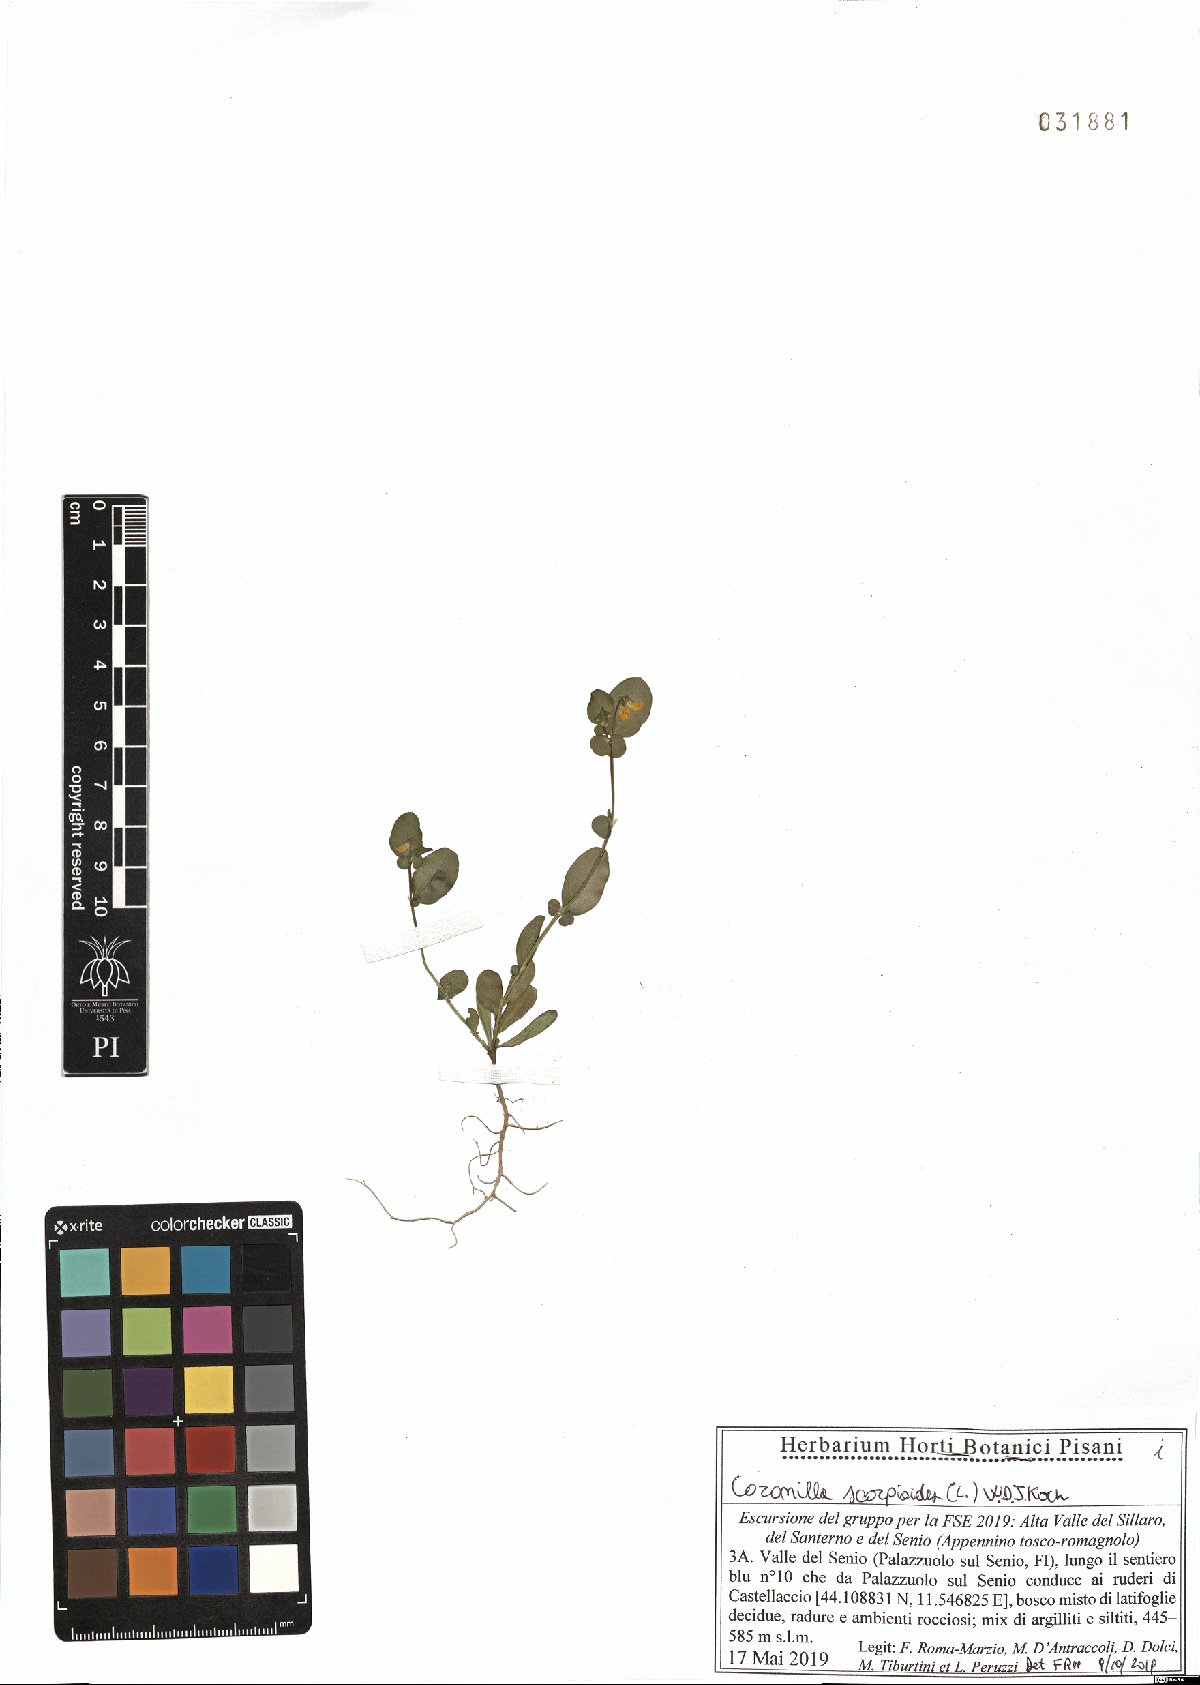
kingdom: Plantae
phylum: Tracheophyta
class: Magnoliopsida
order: Fabales
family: Fabaceae
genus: Coronilla
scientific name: Coronilla scorpioides
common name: Annual scorpion-vetch
